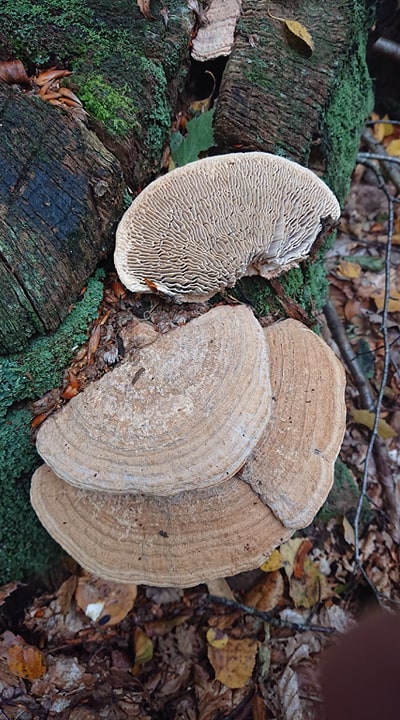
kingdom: Fungi
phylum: Basidiomycota
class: Agaricomycetes
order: Polyporales
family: Fomitopsidaceae
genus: Daedalea
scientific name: Daedalea quercina
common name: ege-labyrintsvamp
